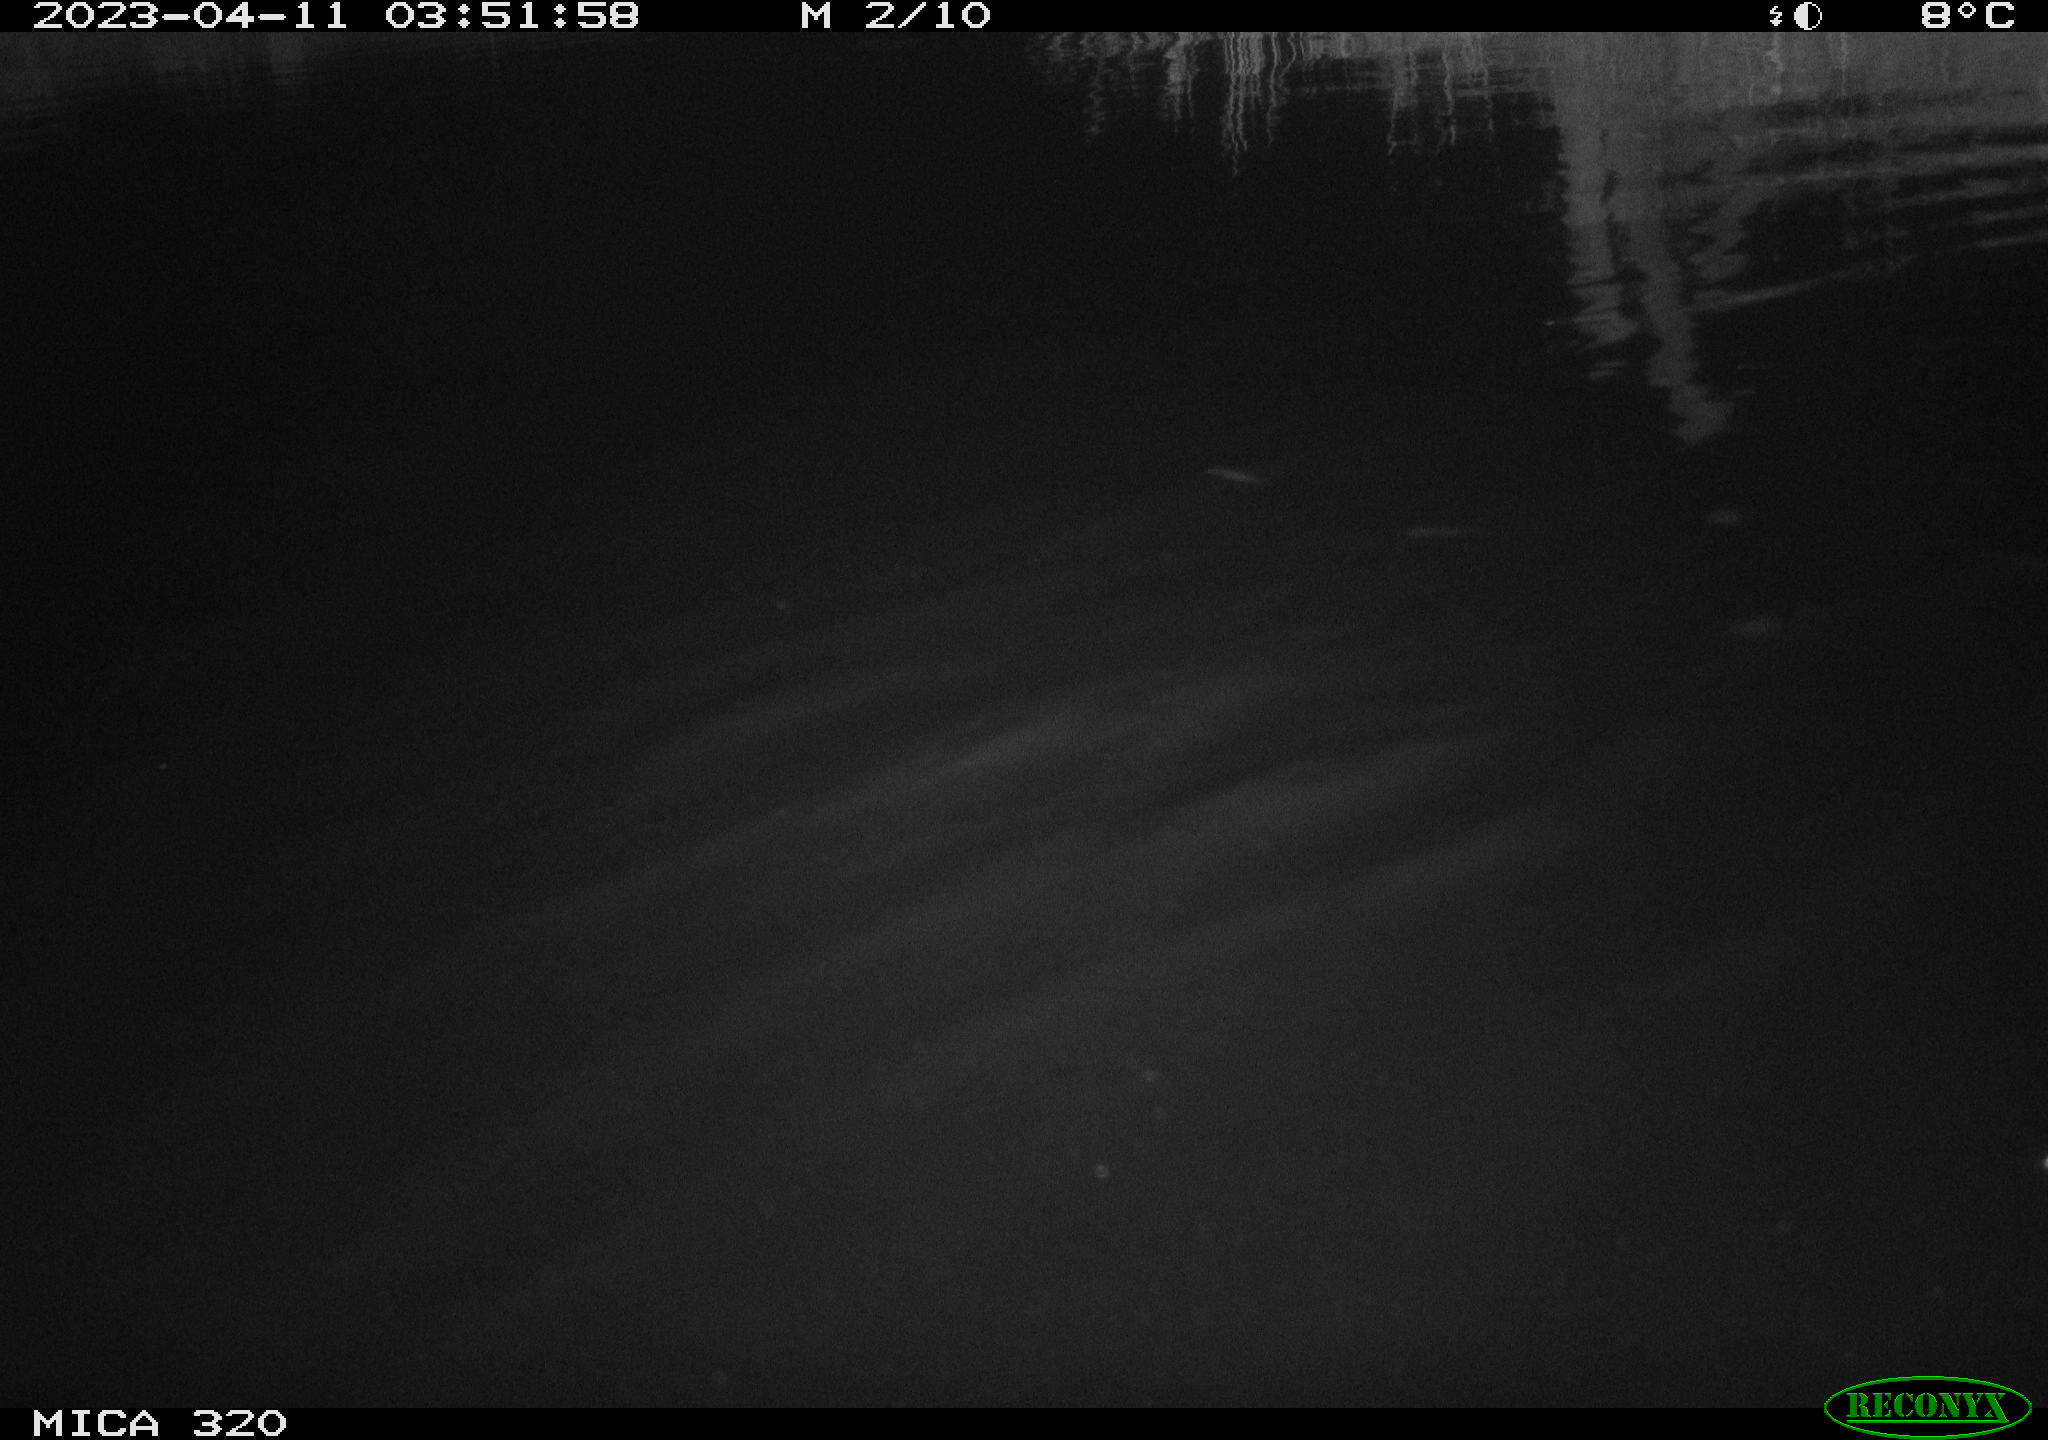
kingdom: Animalia
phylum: Chordata
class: Aves
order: Gruiformes
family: Rallidae
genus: Gallinula
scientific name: Gallinula chloropus
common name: Common moorhen
